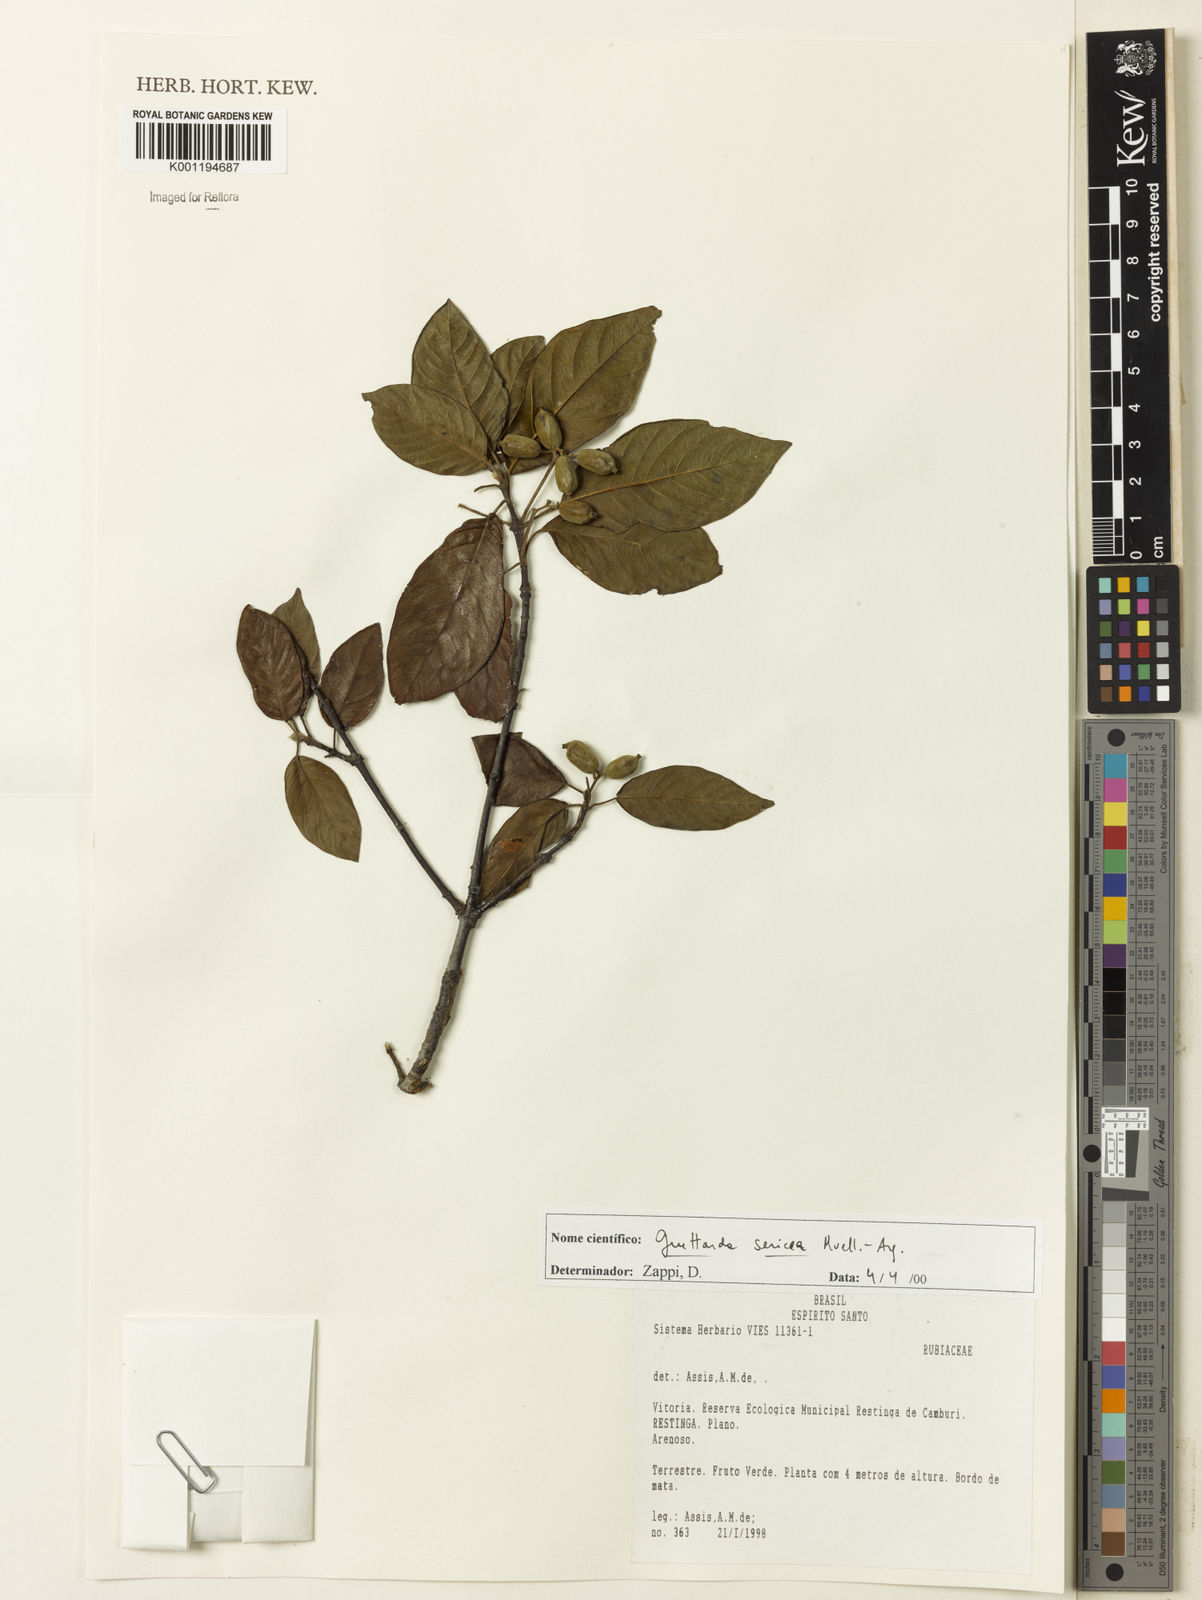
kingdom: Plantae
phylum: Tracheophyta
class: Magnoliopsida
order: Gentianales
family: Rubiaceae
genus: Guettarda
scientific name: Guettarda
